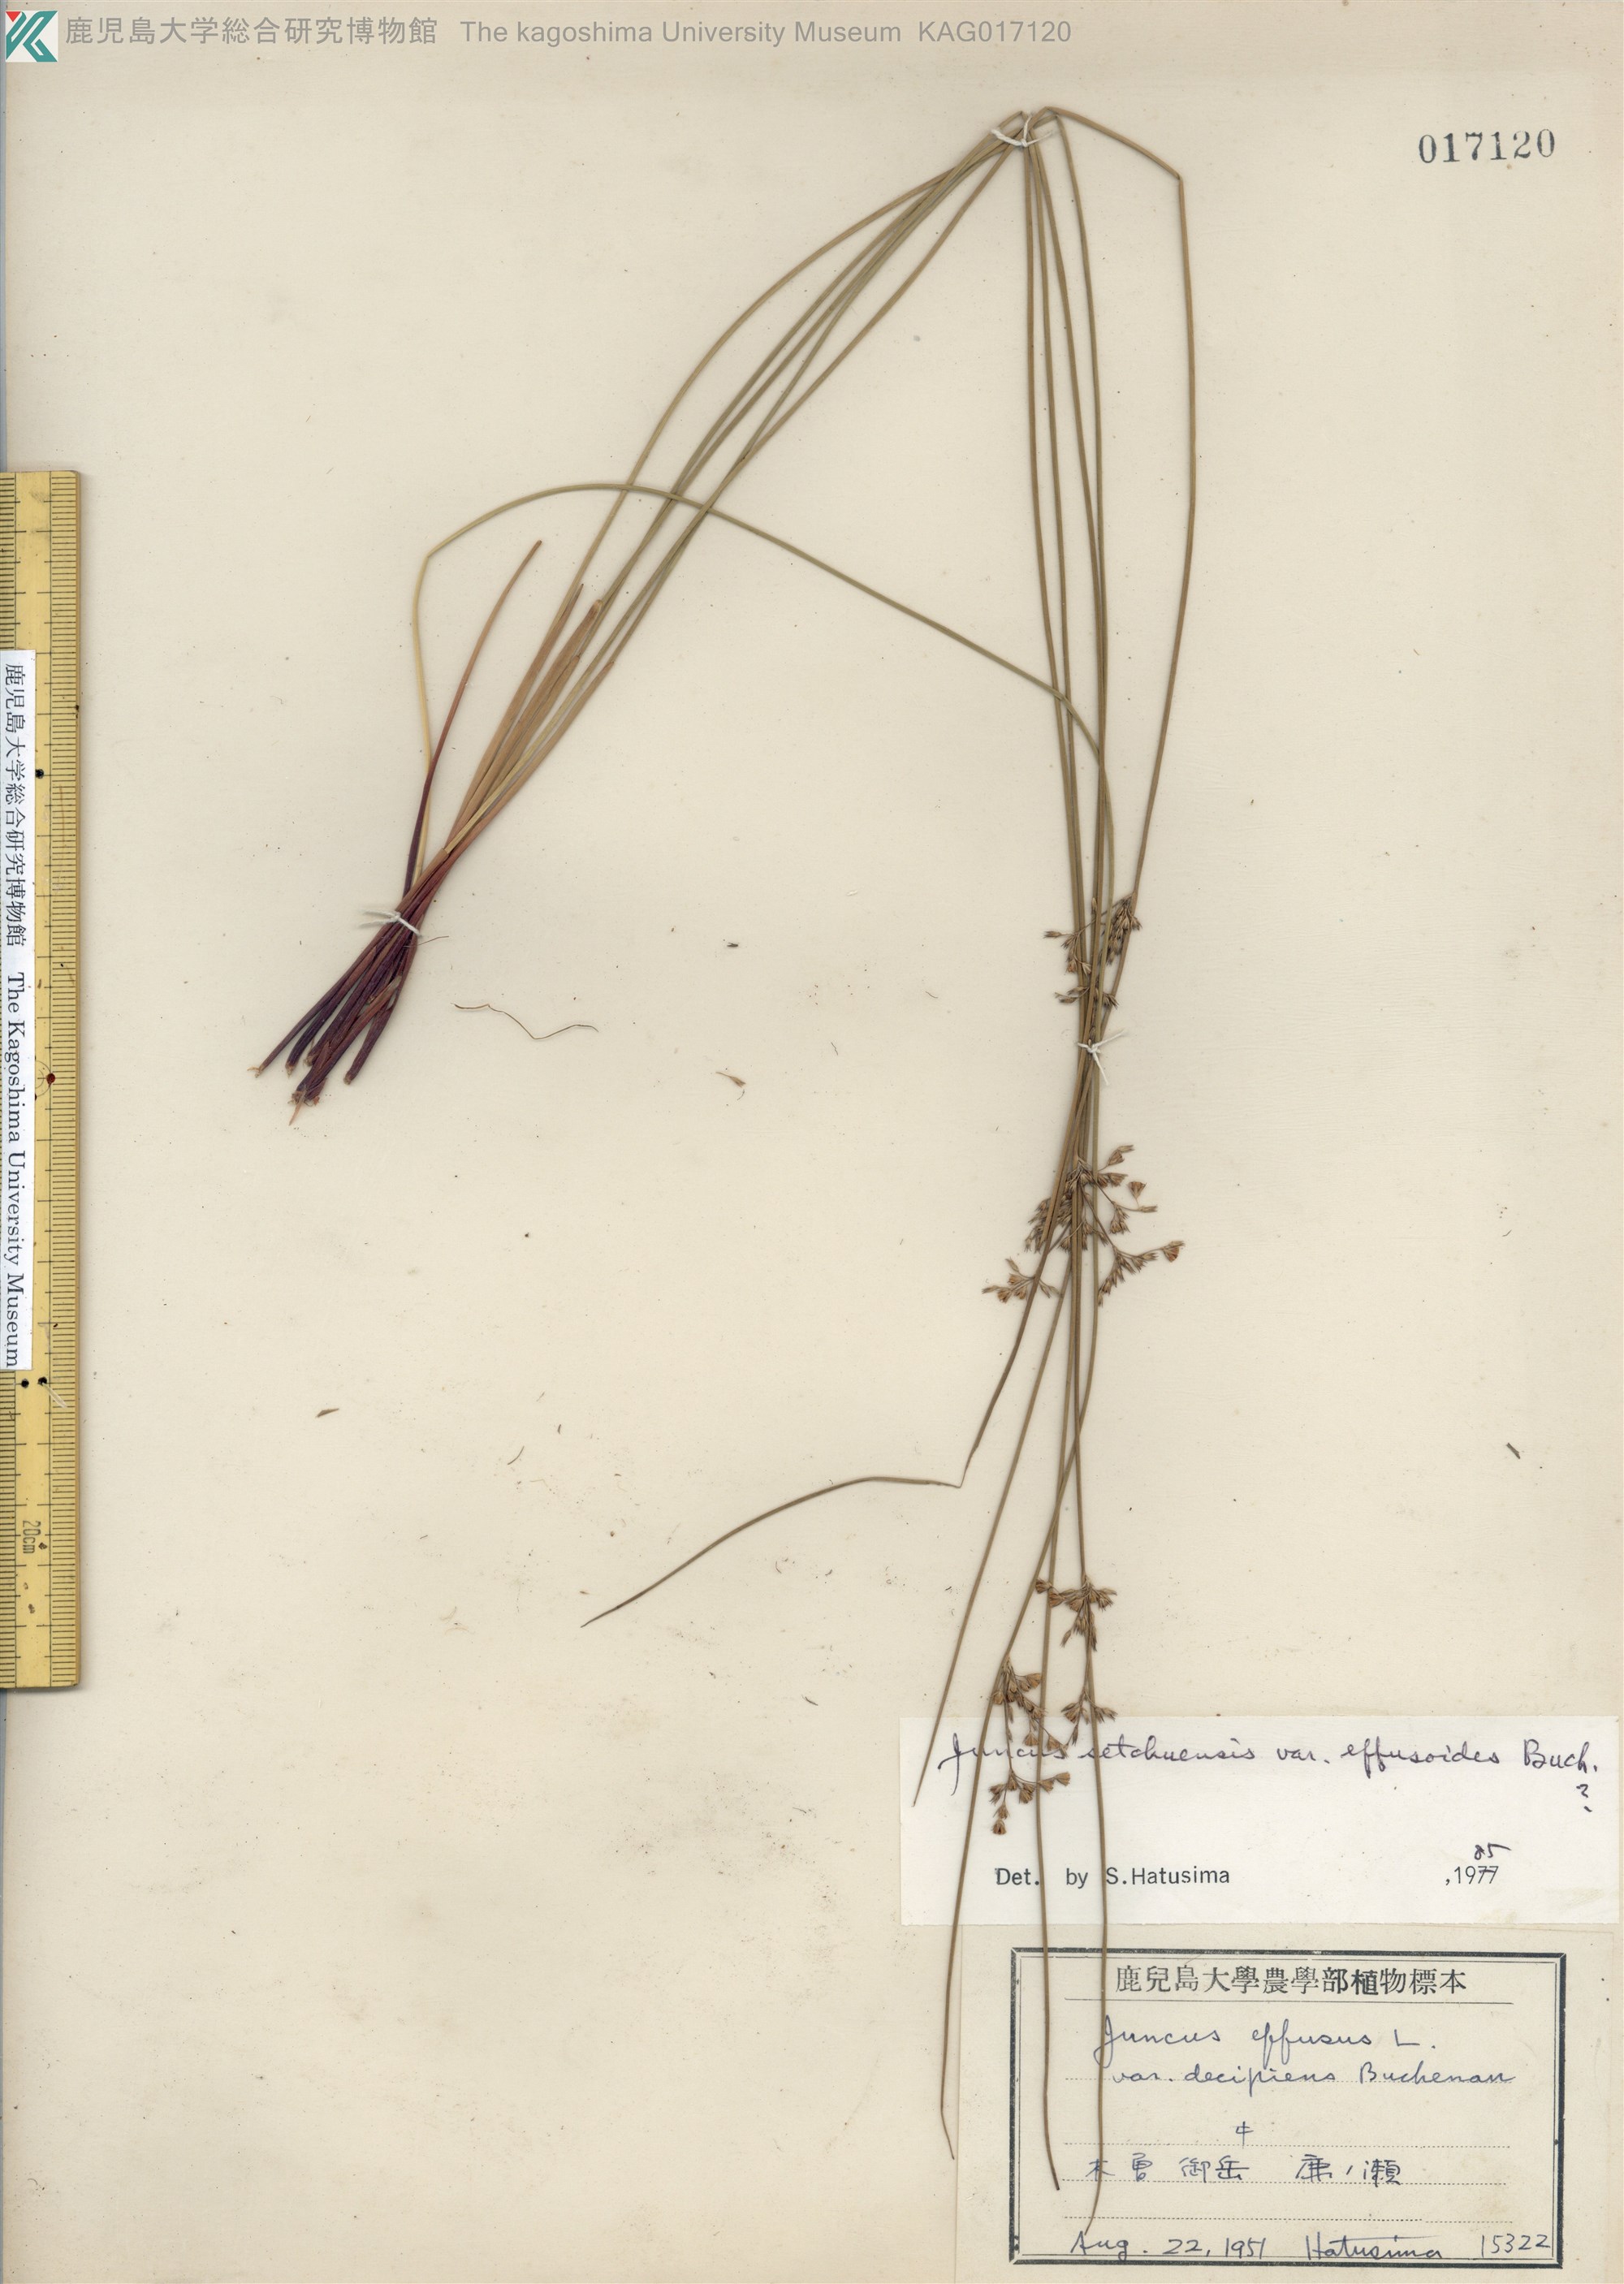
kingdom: Plantae
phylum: Tracheophyta
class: Liliopsida
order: Poales
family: Juncaceae
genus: Juncus
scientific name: Juncus setchuensis
